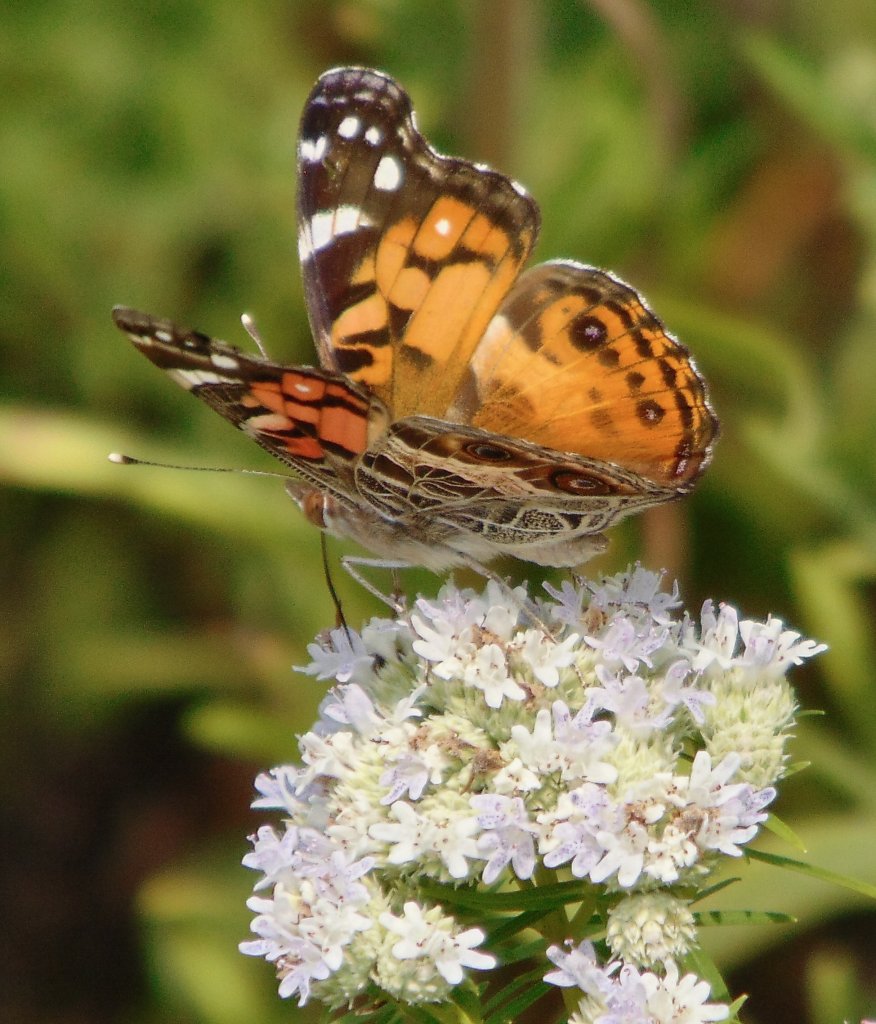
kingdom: Animalia
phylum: Arthropoda
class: Insecta
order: Lepidoptera
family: Nymphalidae
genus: Vanessa
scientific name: Vanessa virginiensis
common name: American Lady
